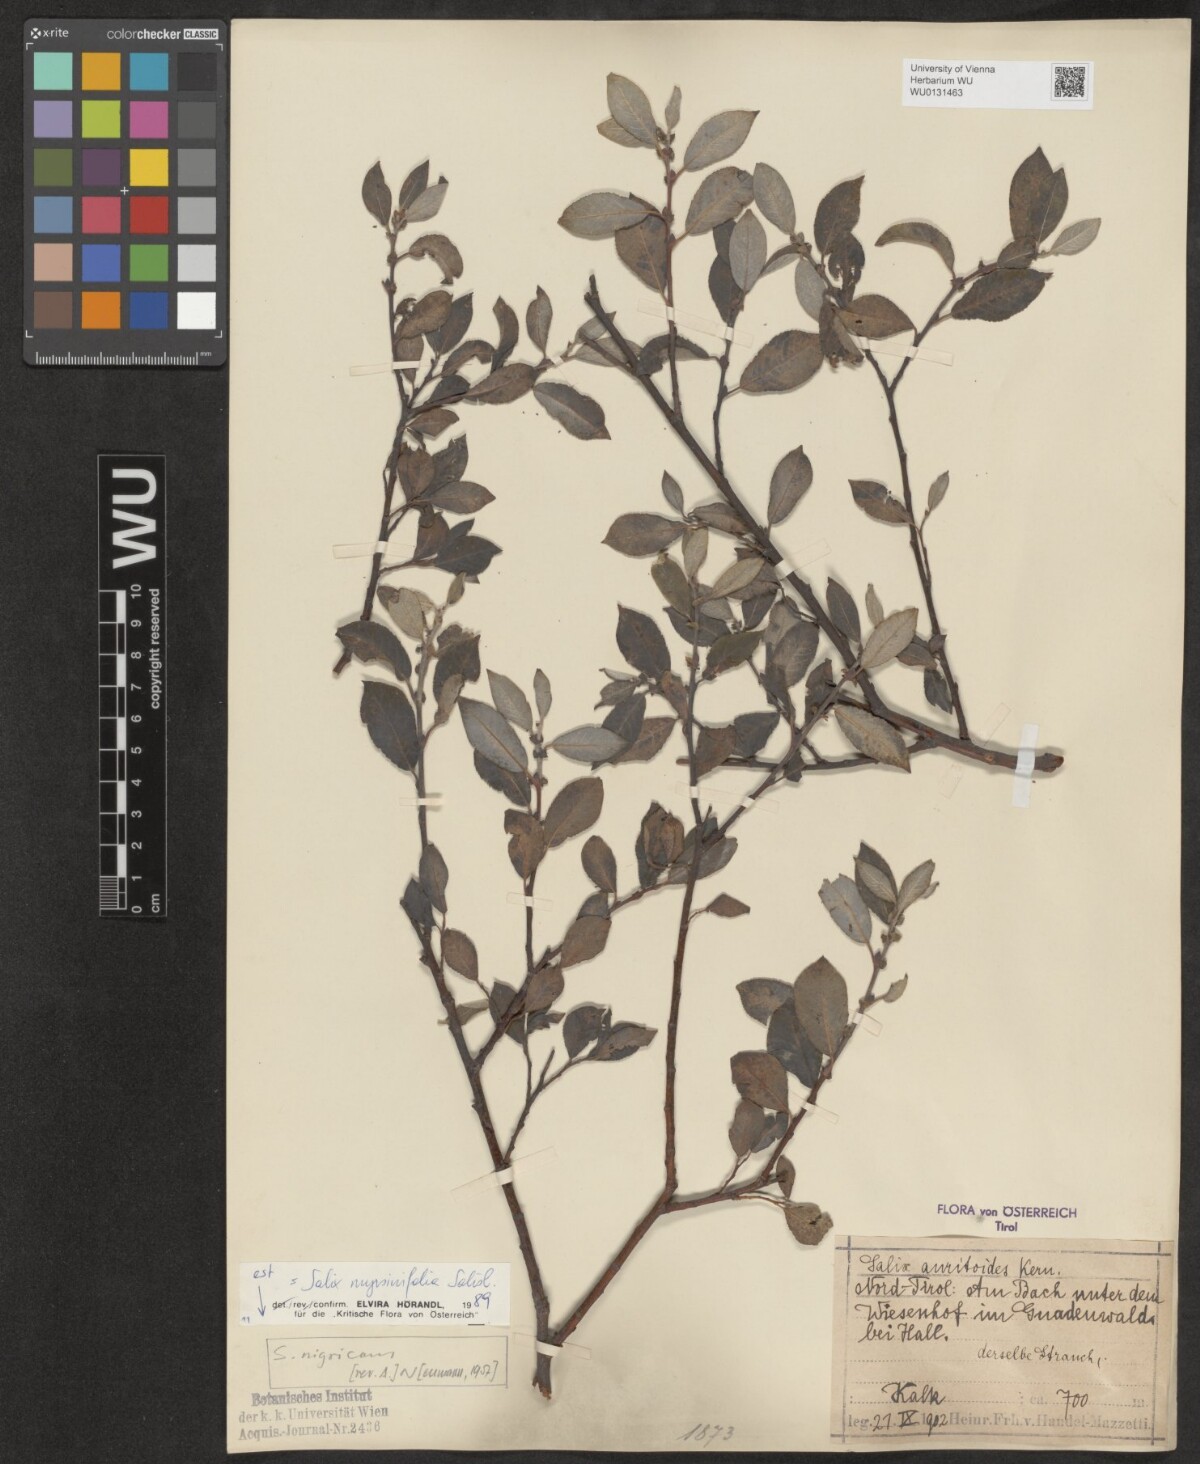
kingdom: Plantae
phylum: Tracheophyta
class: Magnoliopsida
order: Malpighiales
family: Salicaceae
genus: Salix
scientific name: Salix myrsinifolia
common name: Dark-leaved willow
